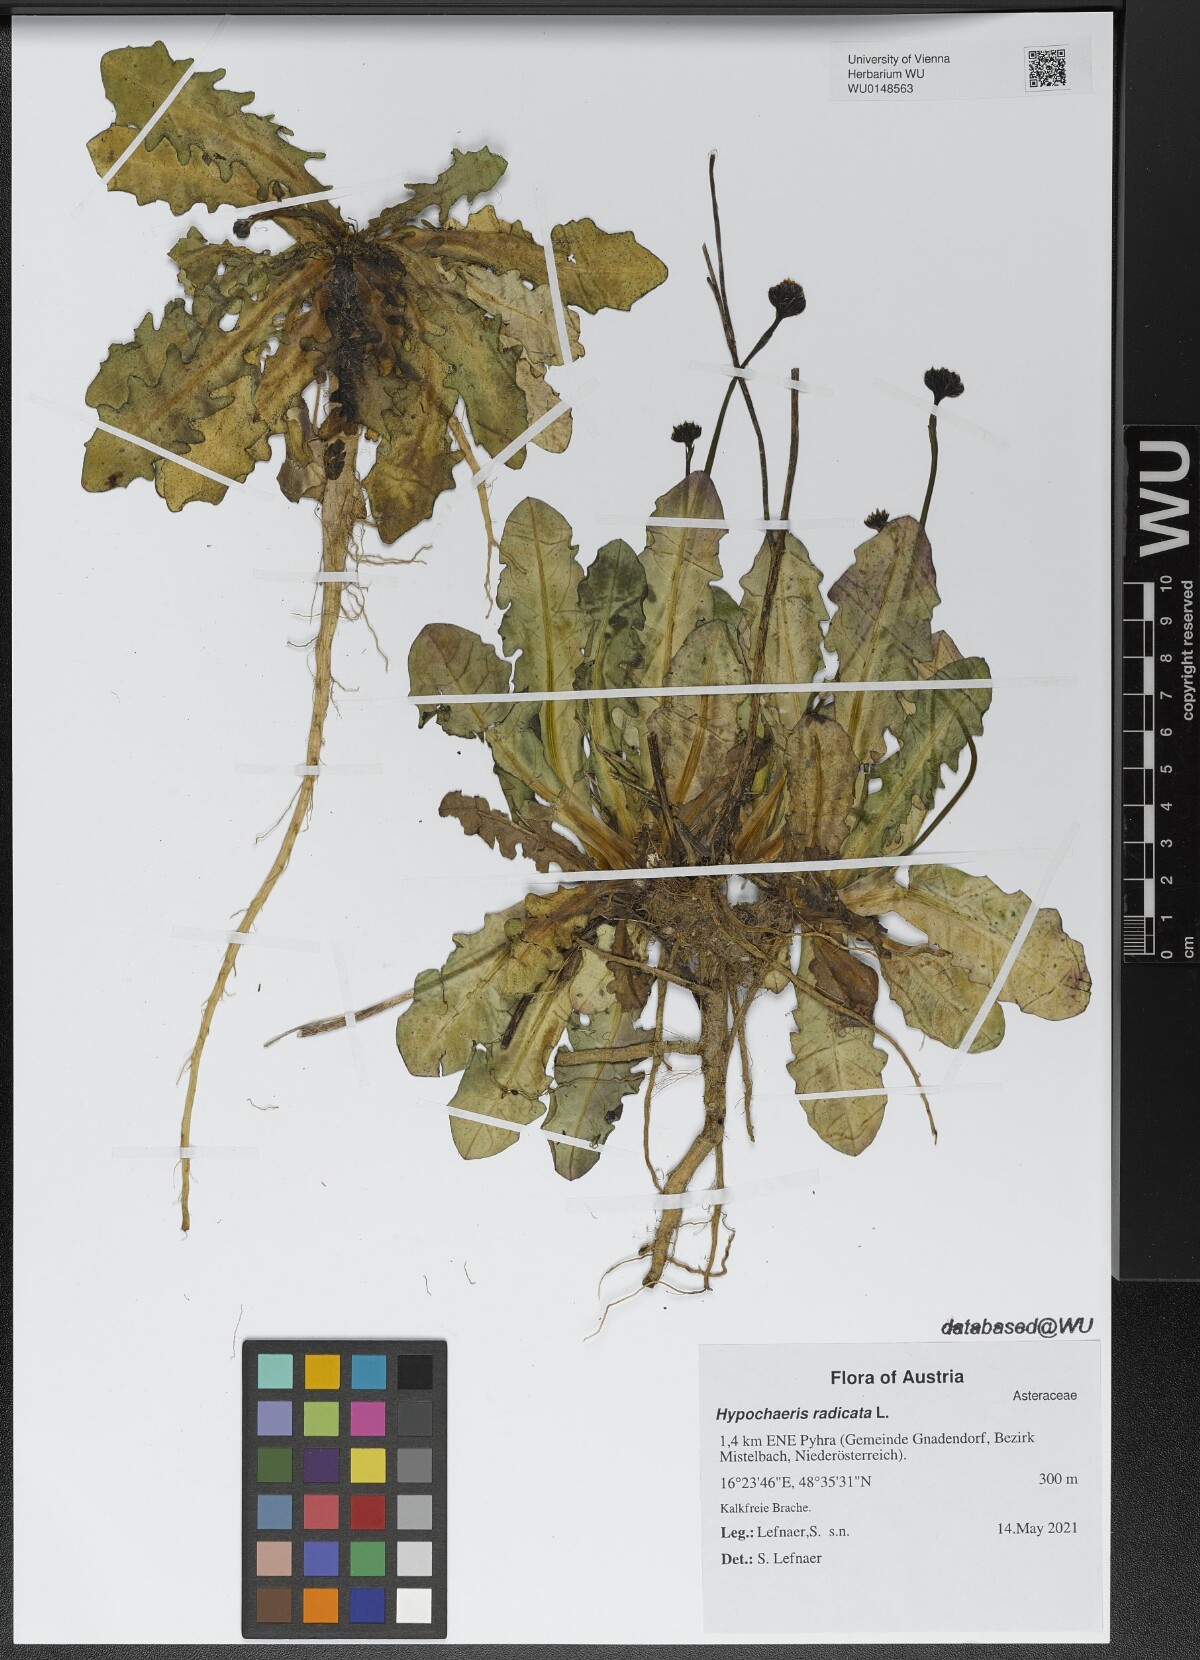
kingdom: Plantae
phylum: Tracheophyta
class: Magnoliopsida
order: Asterales
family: Asteraceae
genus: Hypochaeris
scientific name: Hypochaeris radicata
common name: Flatweed
